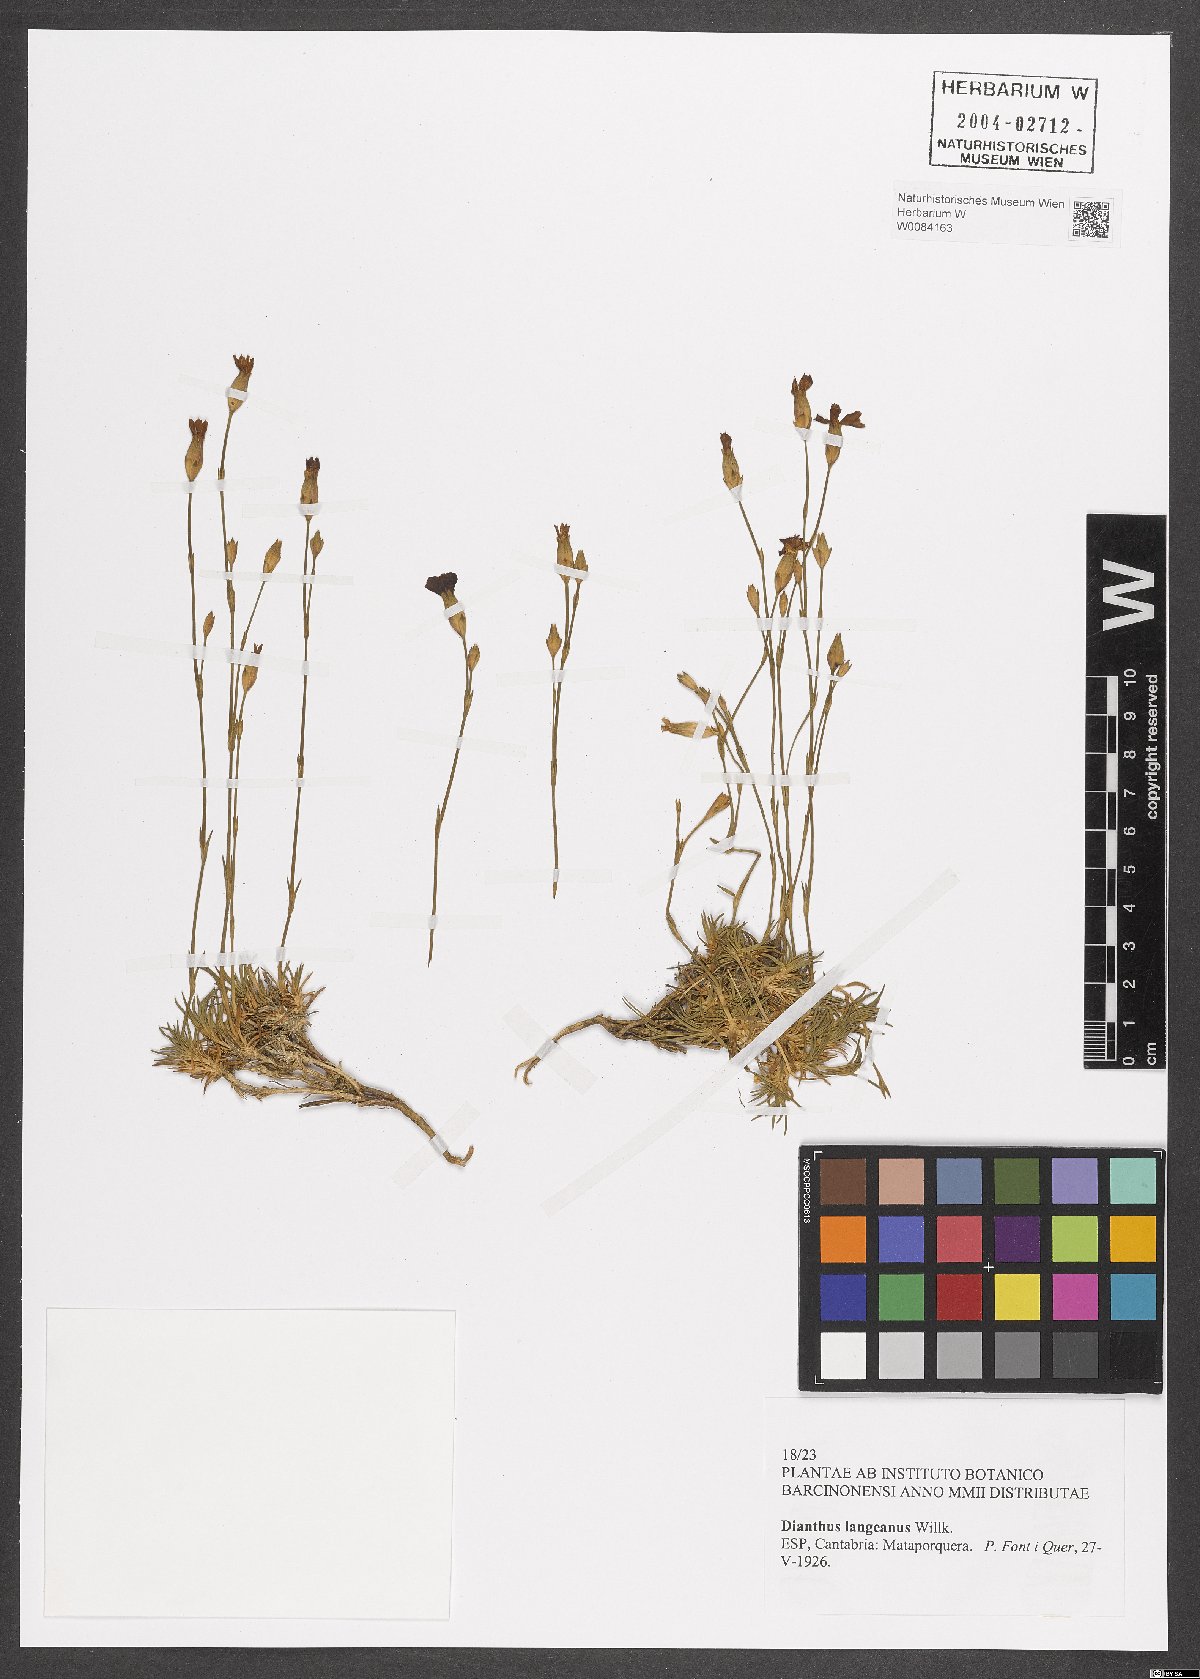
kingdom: Plantae
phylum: Tracheophyta
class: Magnoliopsida
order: Caryophyllales
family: Caryophyllaceae
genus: Dianthus
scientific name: Dianthus langeanus
